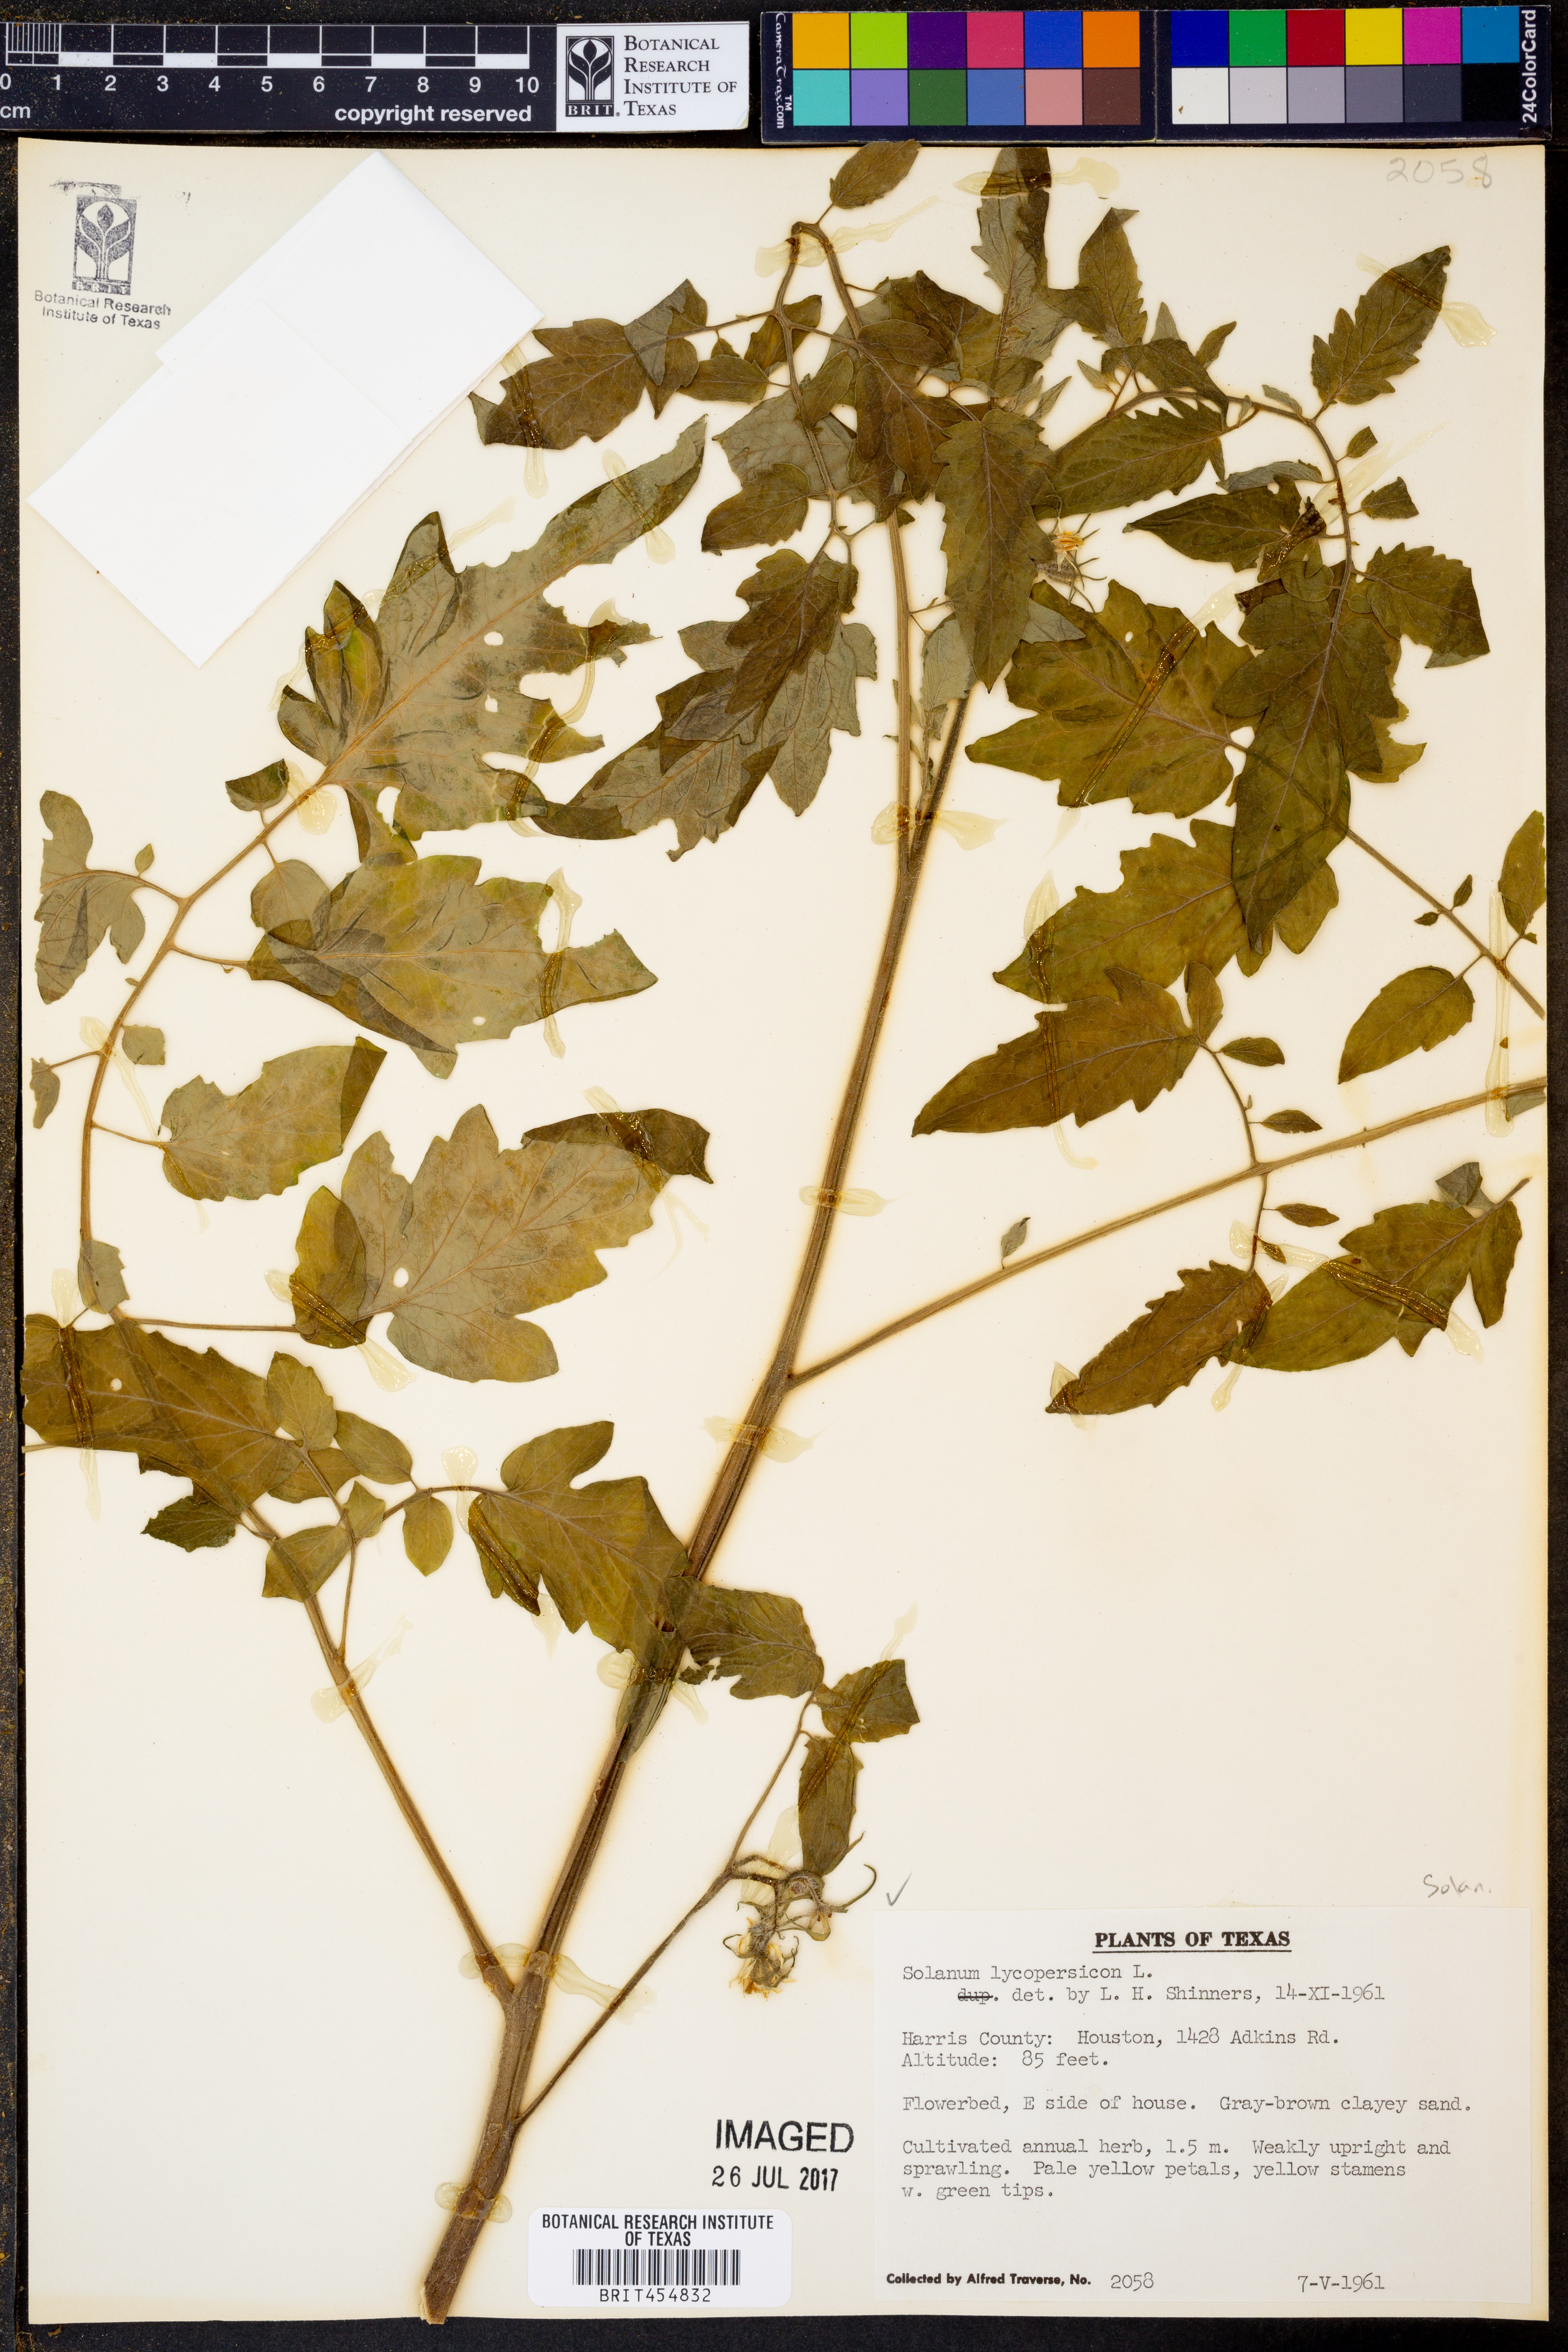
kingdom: Plantae
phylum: Tracheophyta
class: Magnoliopsida
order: Solanales
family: Solanaceae
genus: Solanum
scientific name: Solanum lycopersicum
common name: Garden tomato
